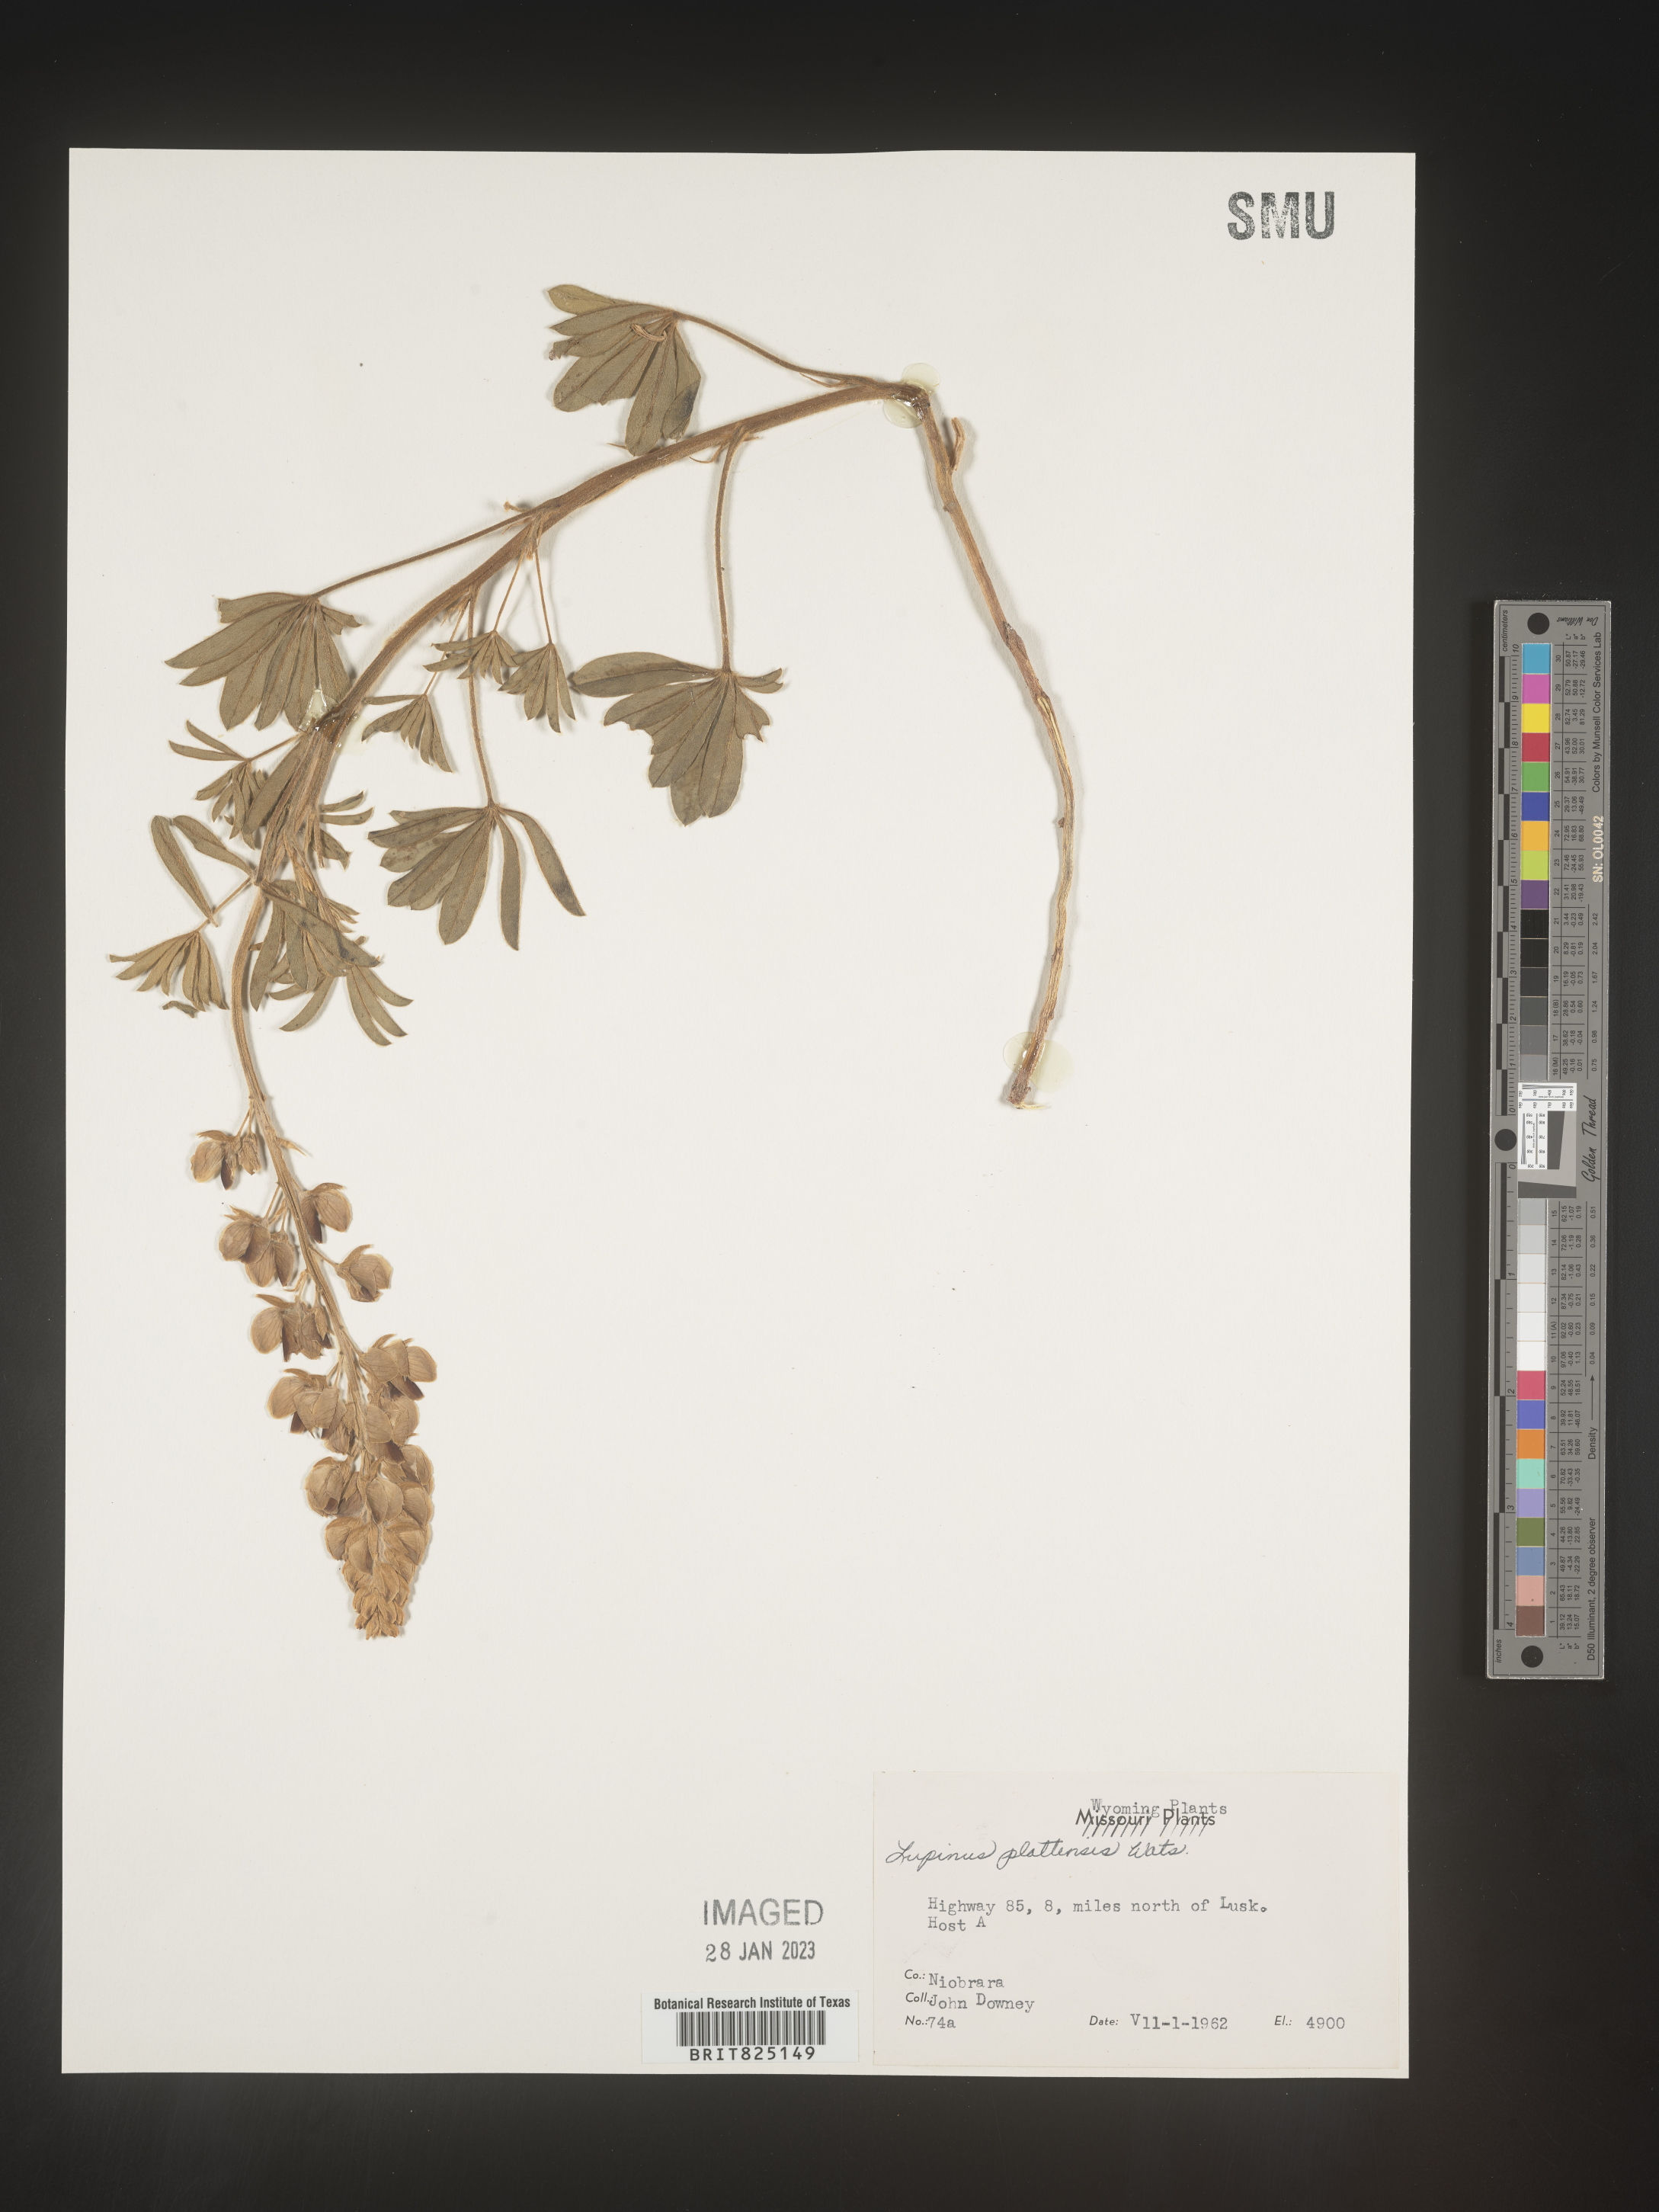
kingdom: Plantae
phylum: Tracheophyta
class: Magnoliopsida
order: Fabales
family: Fabaceae
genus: Lupinus
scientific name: Lupinus plattensis
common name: Platte lupine
